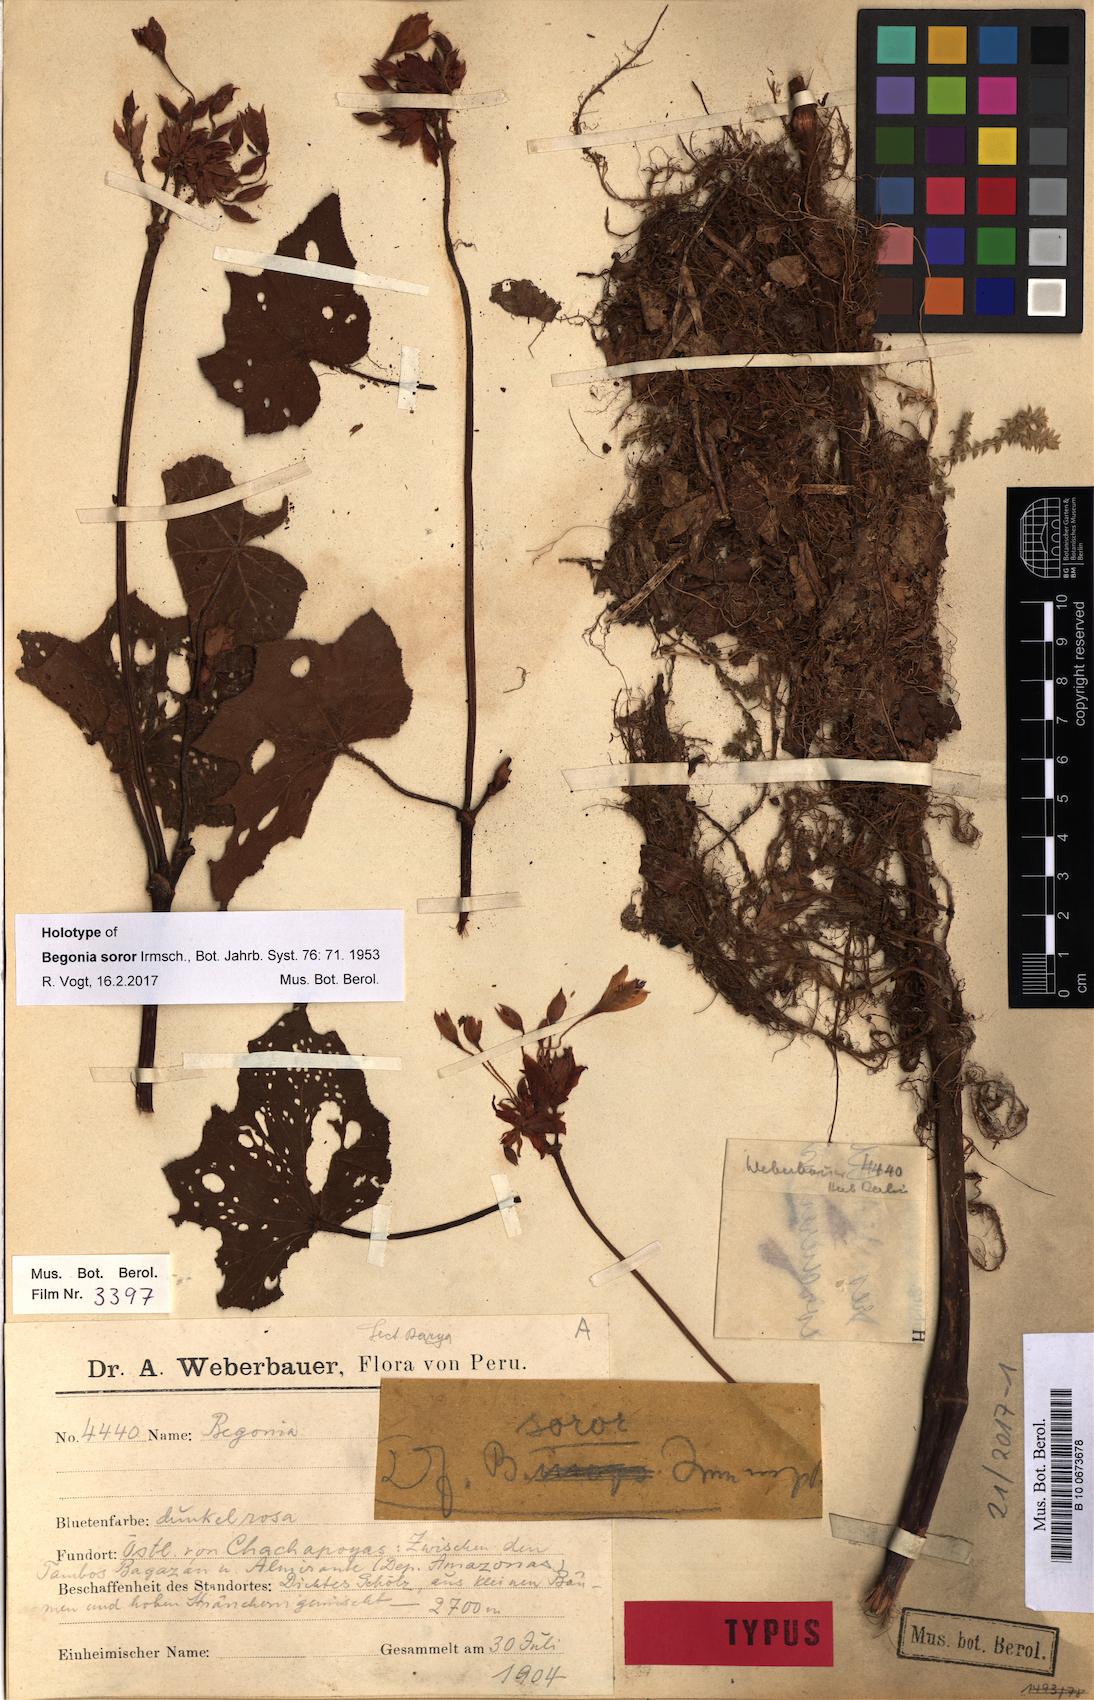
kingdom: Plantae
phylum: Tracheophyta
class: Magnoliopsida
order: Cucurbitales
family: Begoniaceae
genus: Begonia
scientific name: Begonia soror
